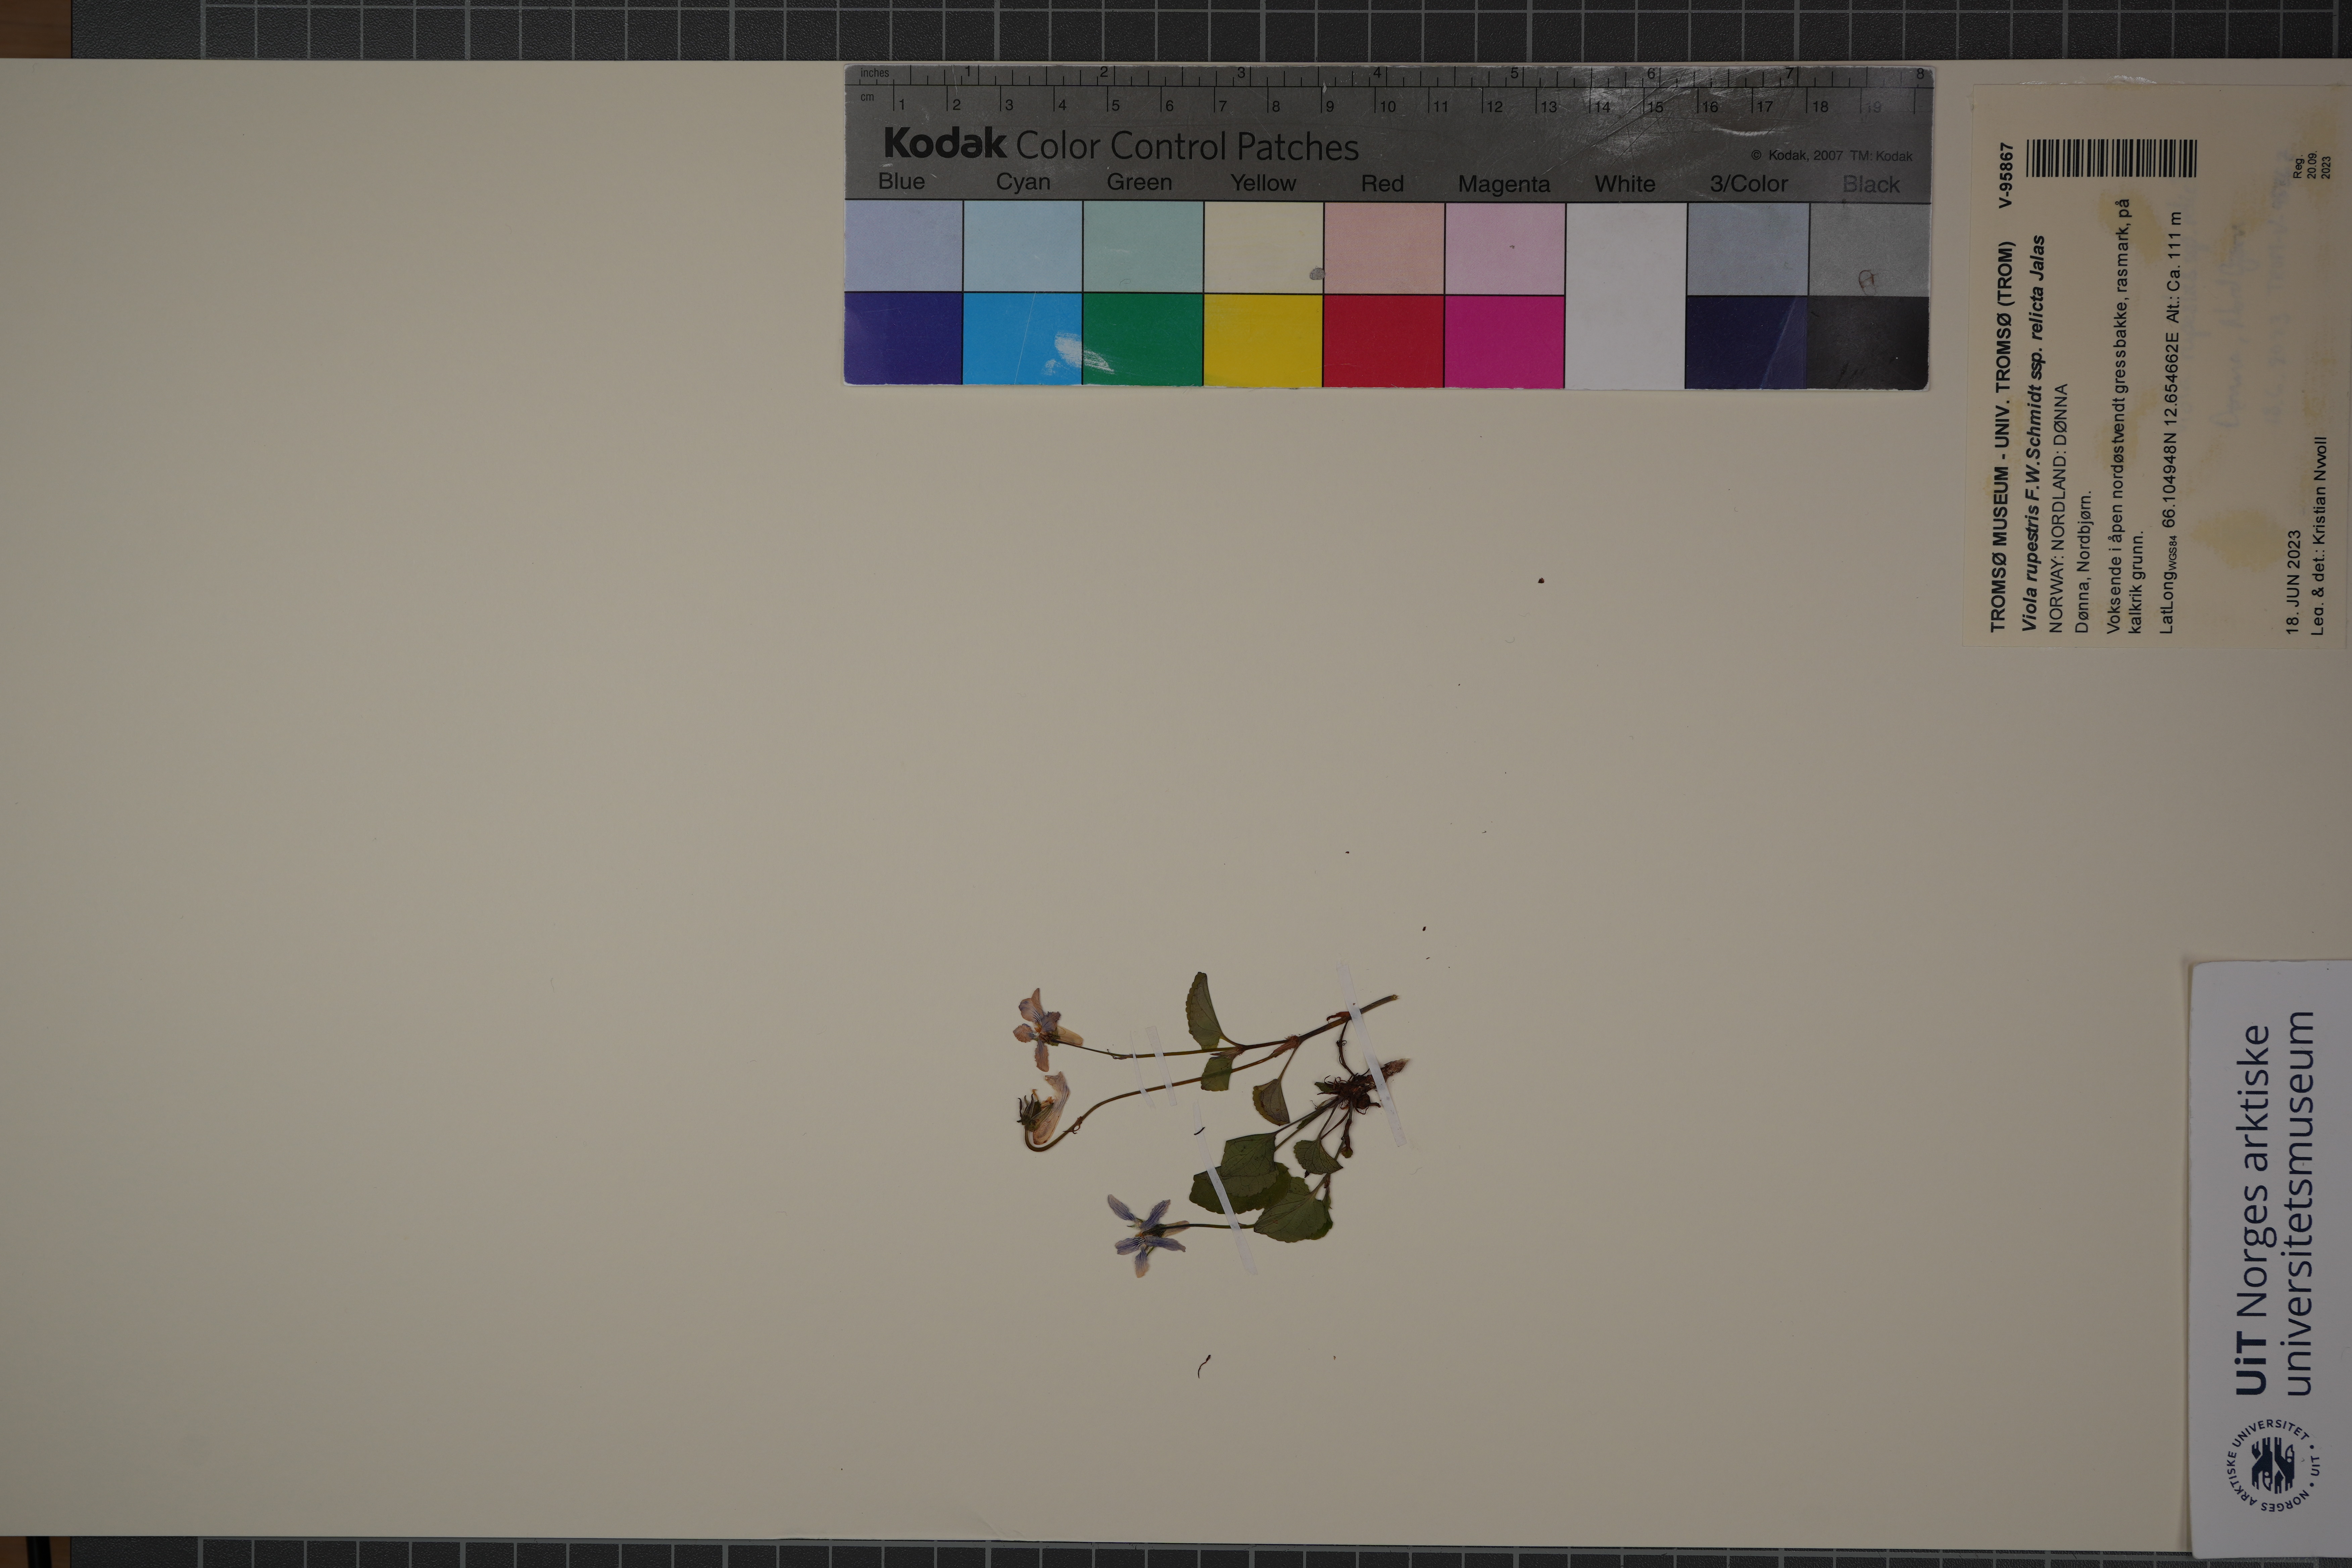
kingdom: Plantae
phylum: Tracheophyta
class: Magnoliopsida
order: Malpighiales
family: Violaceae
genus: Viola
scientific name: Viola rupestris
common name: Teesdale violet
